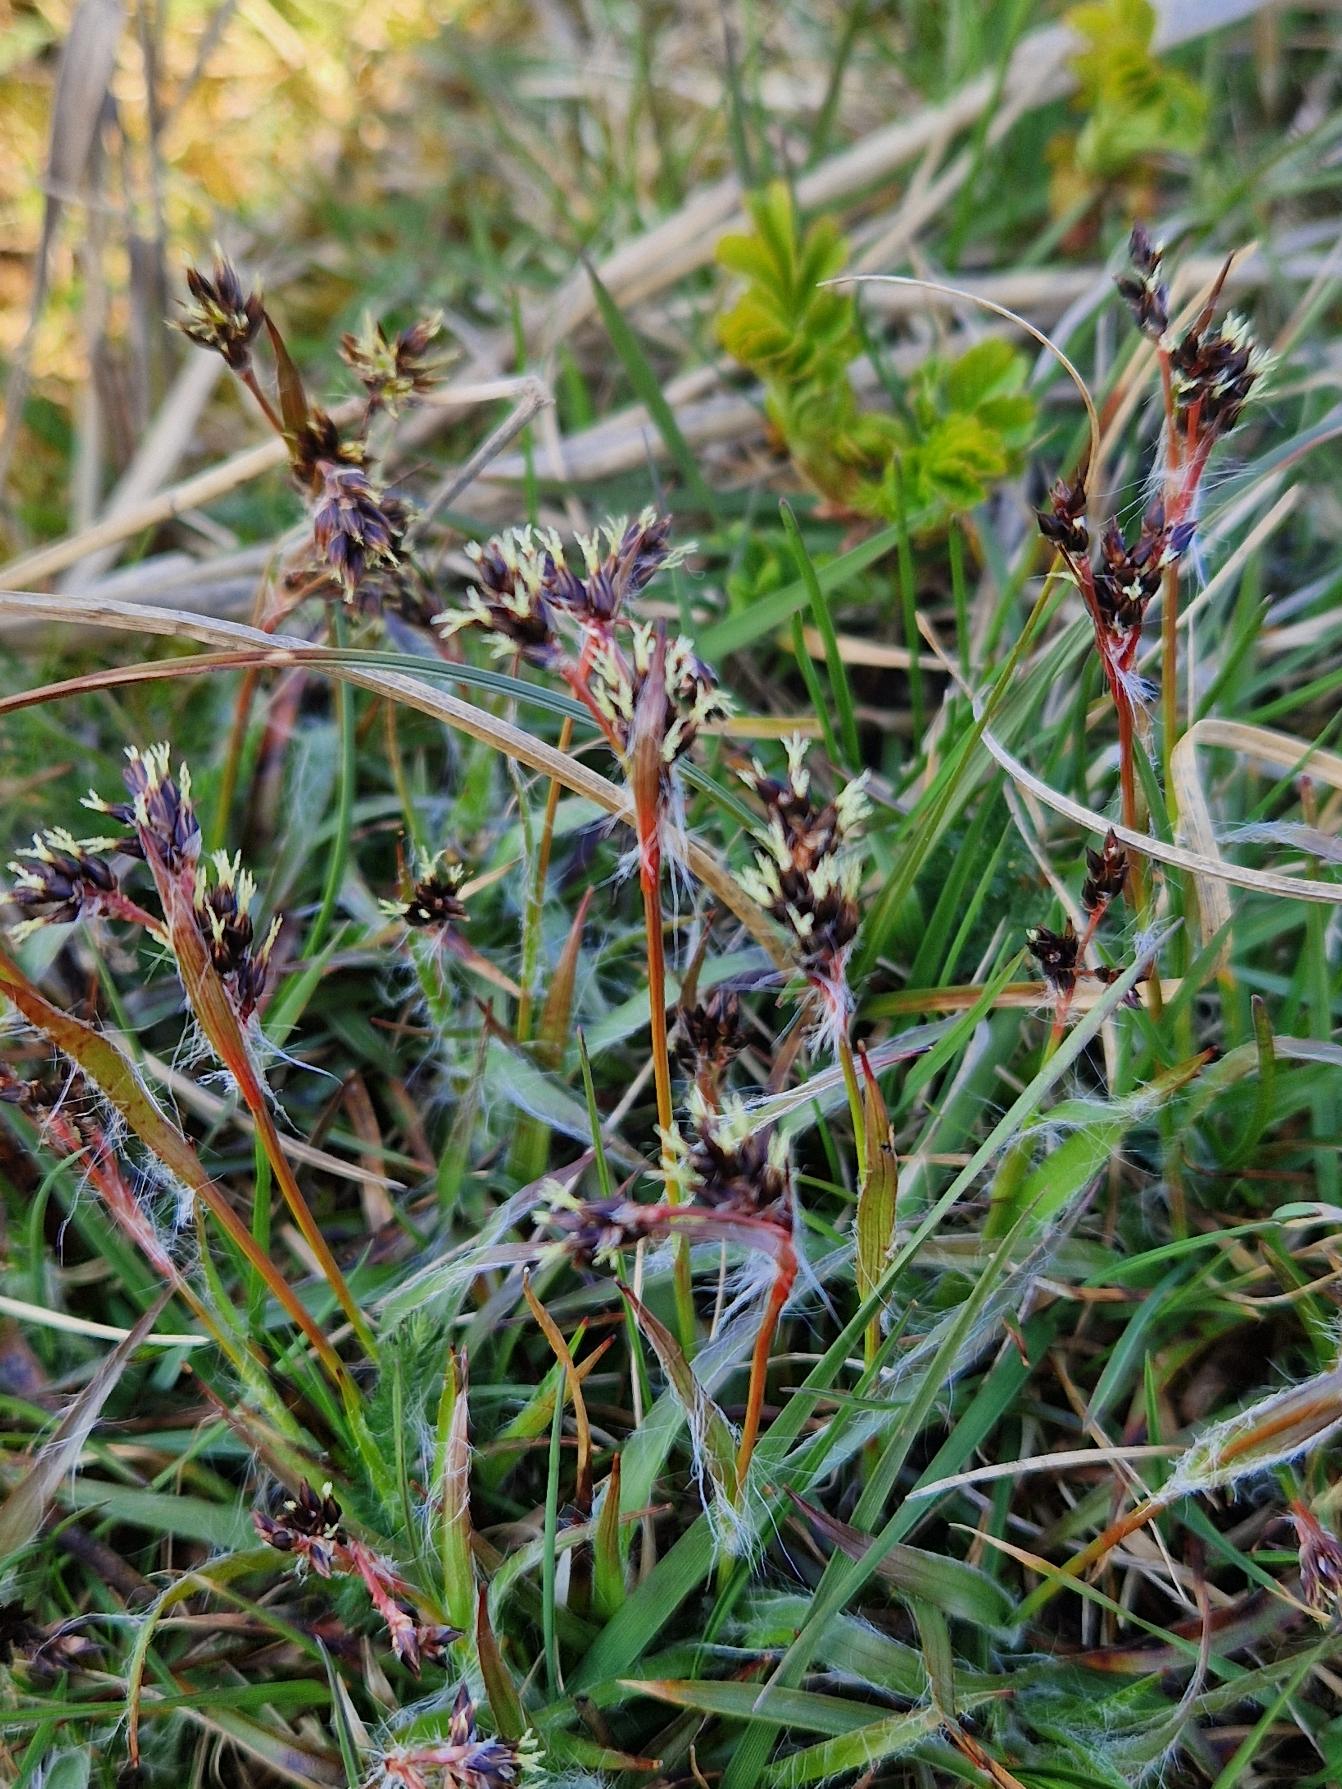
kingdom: Plantae
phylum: Tracheophyta
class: Liliopsida
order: Poales
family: Juncaceae
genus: Luzula
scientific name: Luzula campestris
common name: Mark-frytle
